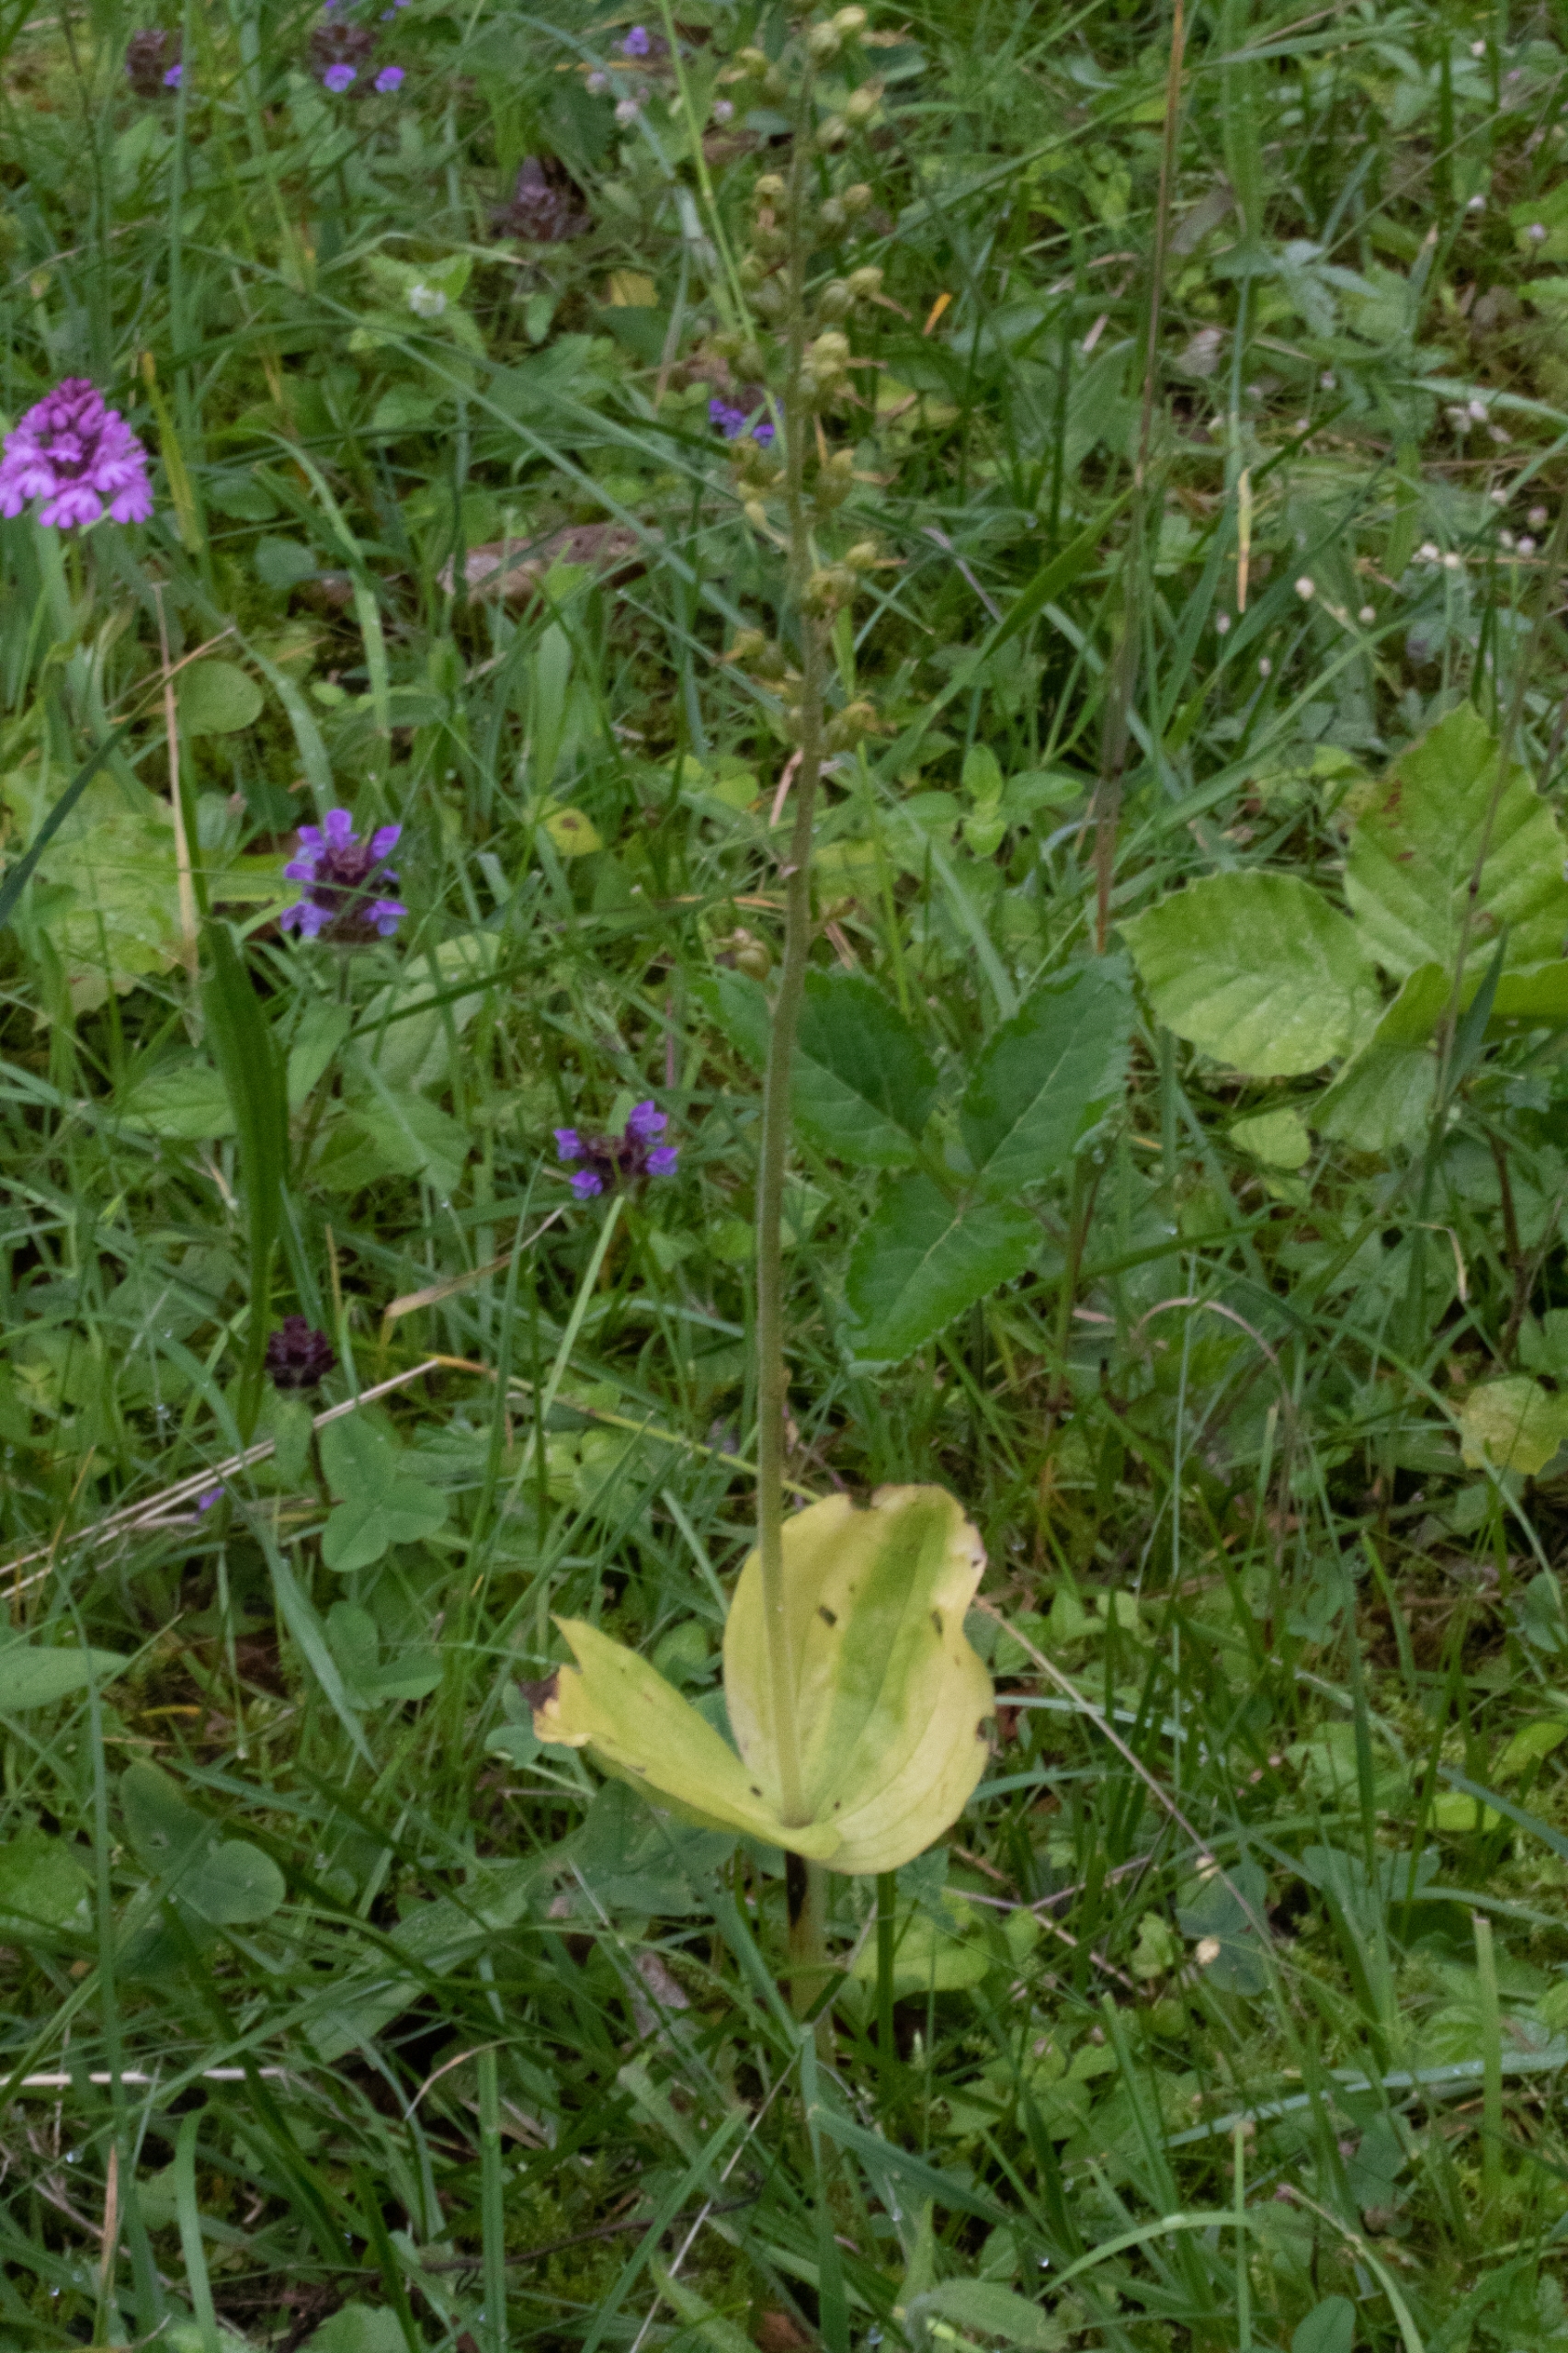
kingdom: Plantae
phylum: Tracheophyta
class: Liliopsida
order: Asparagales
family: Orchidaceae
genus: Neottia
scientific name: Neottia ovata
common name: Ægbladet fliglæbe
